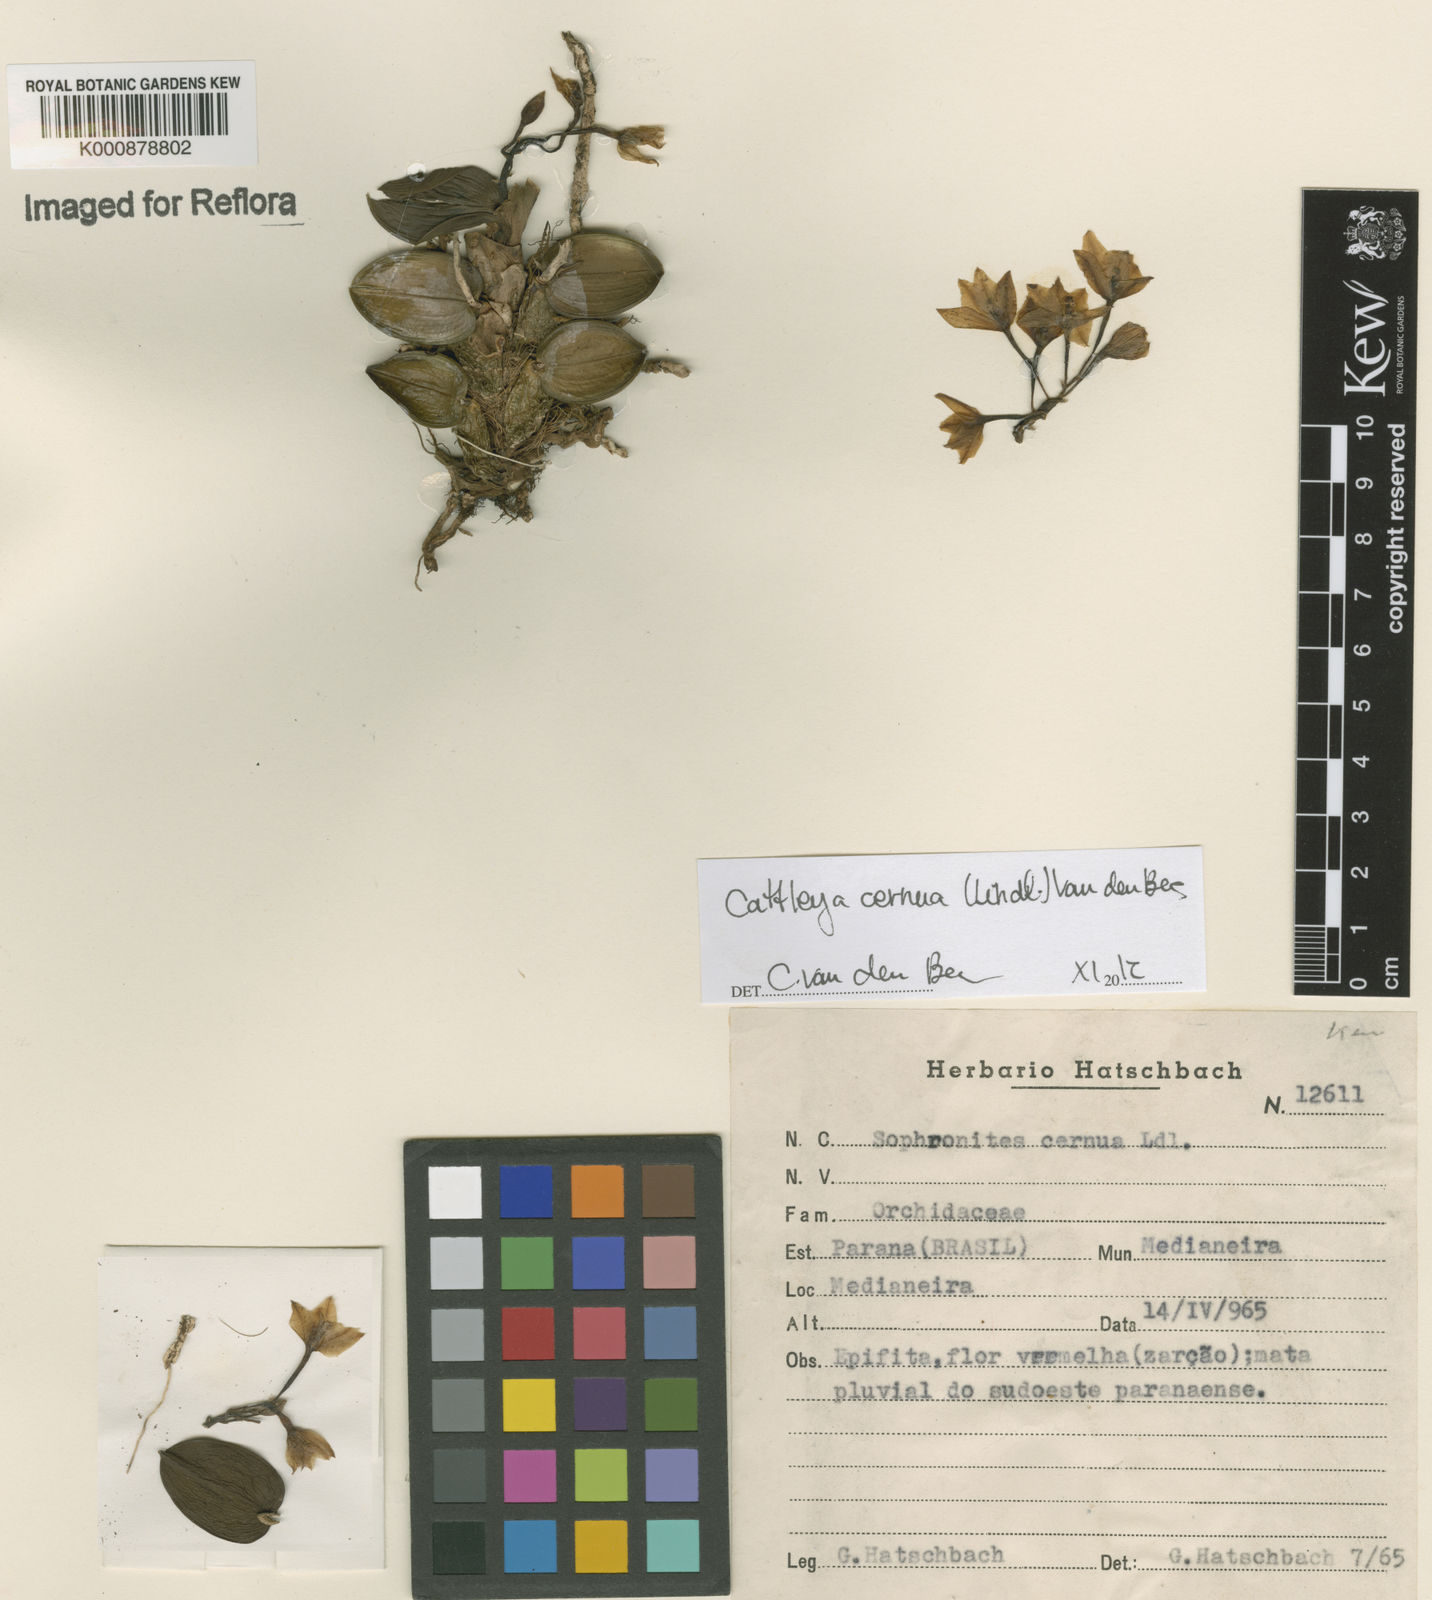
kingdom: Plantae
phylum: Tracheophyta
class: Liliopsida
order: Asparagales
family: Orchidaceae
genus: Cattleya
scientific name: Cattleya
